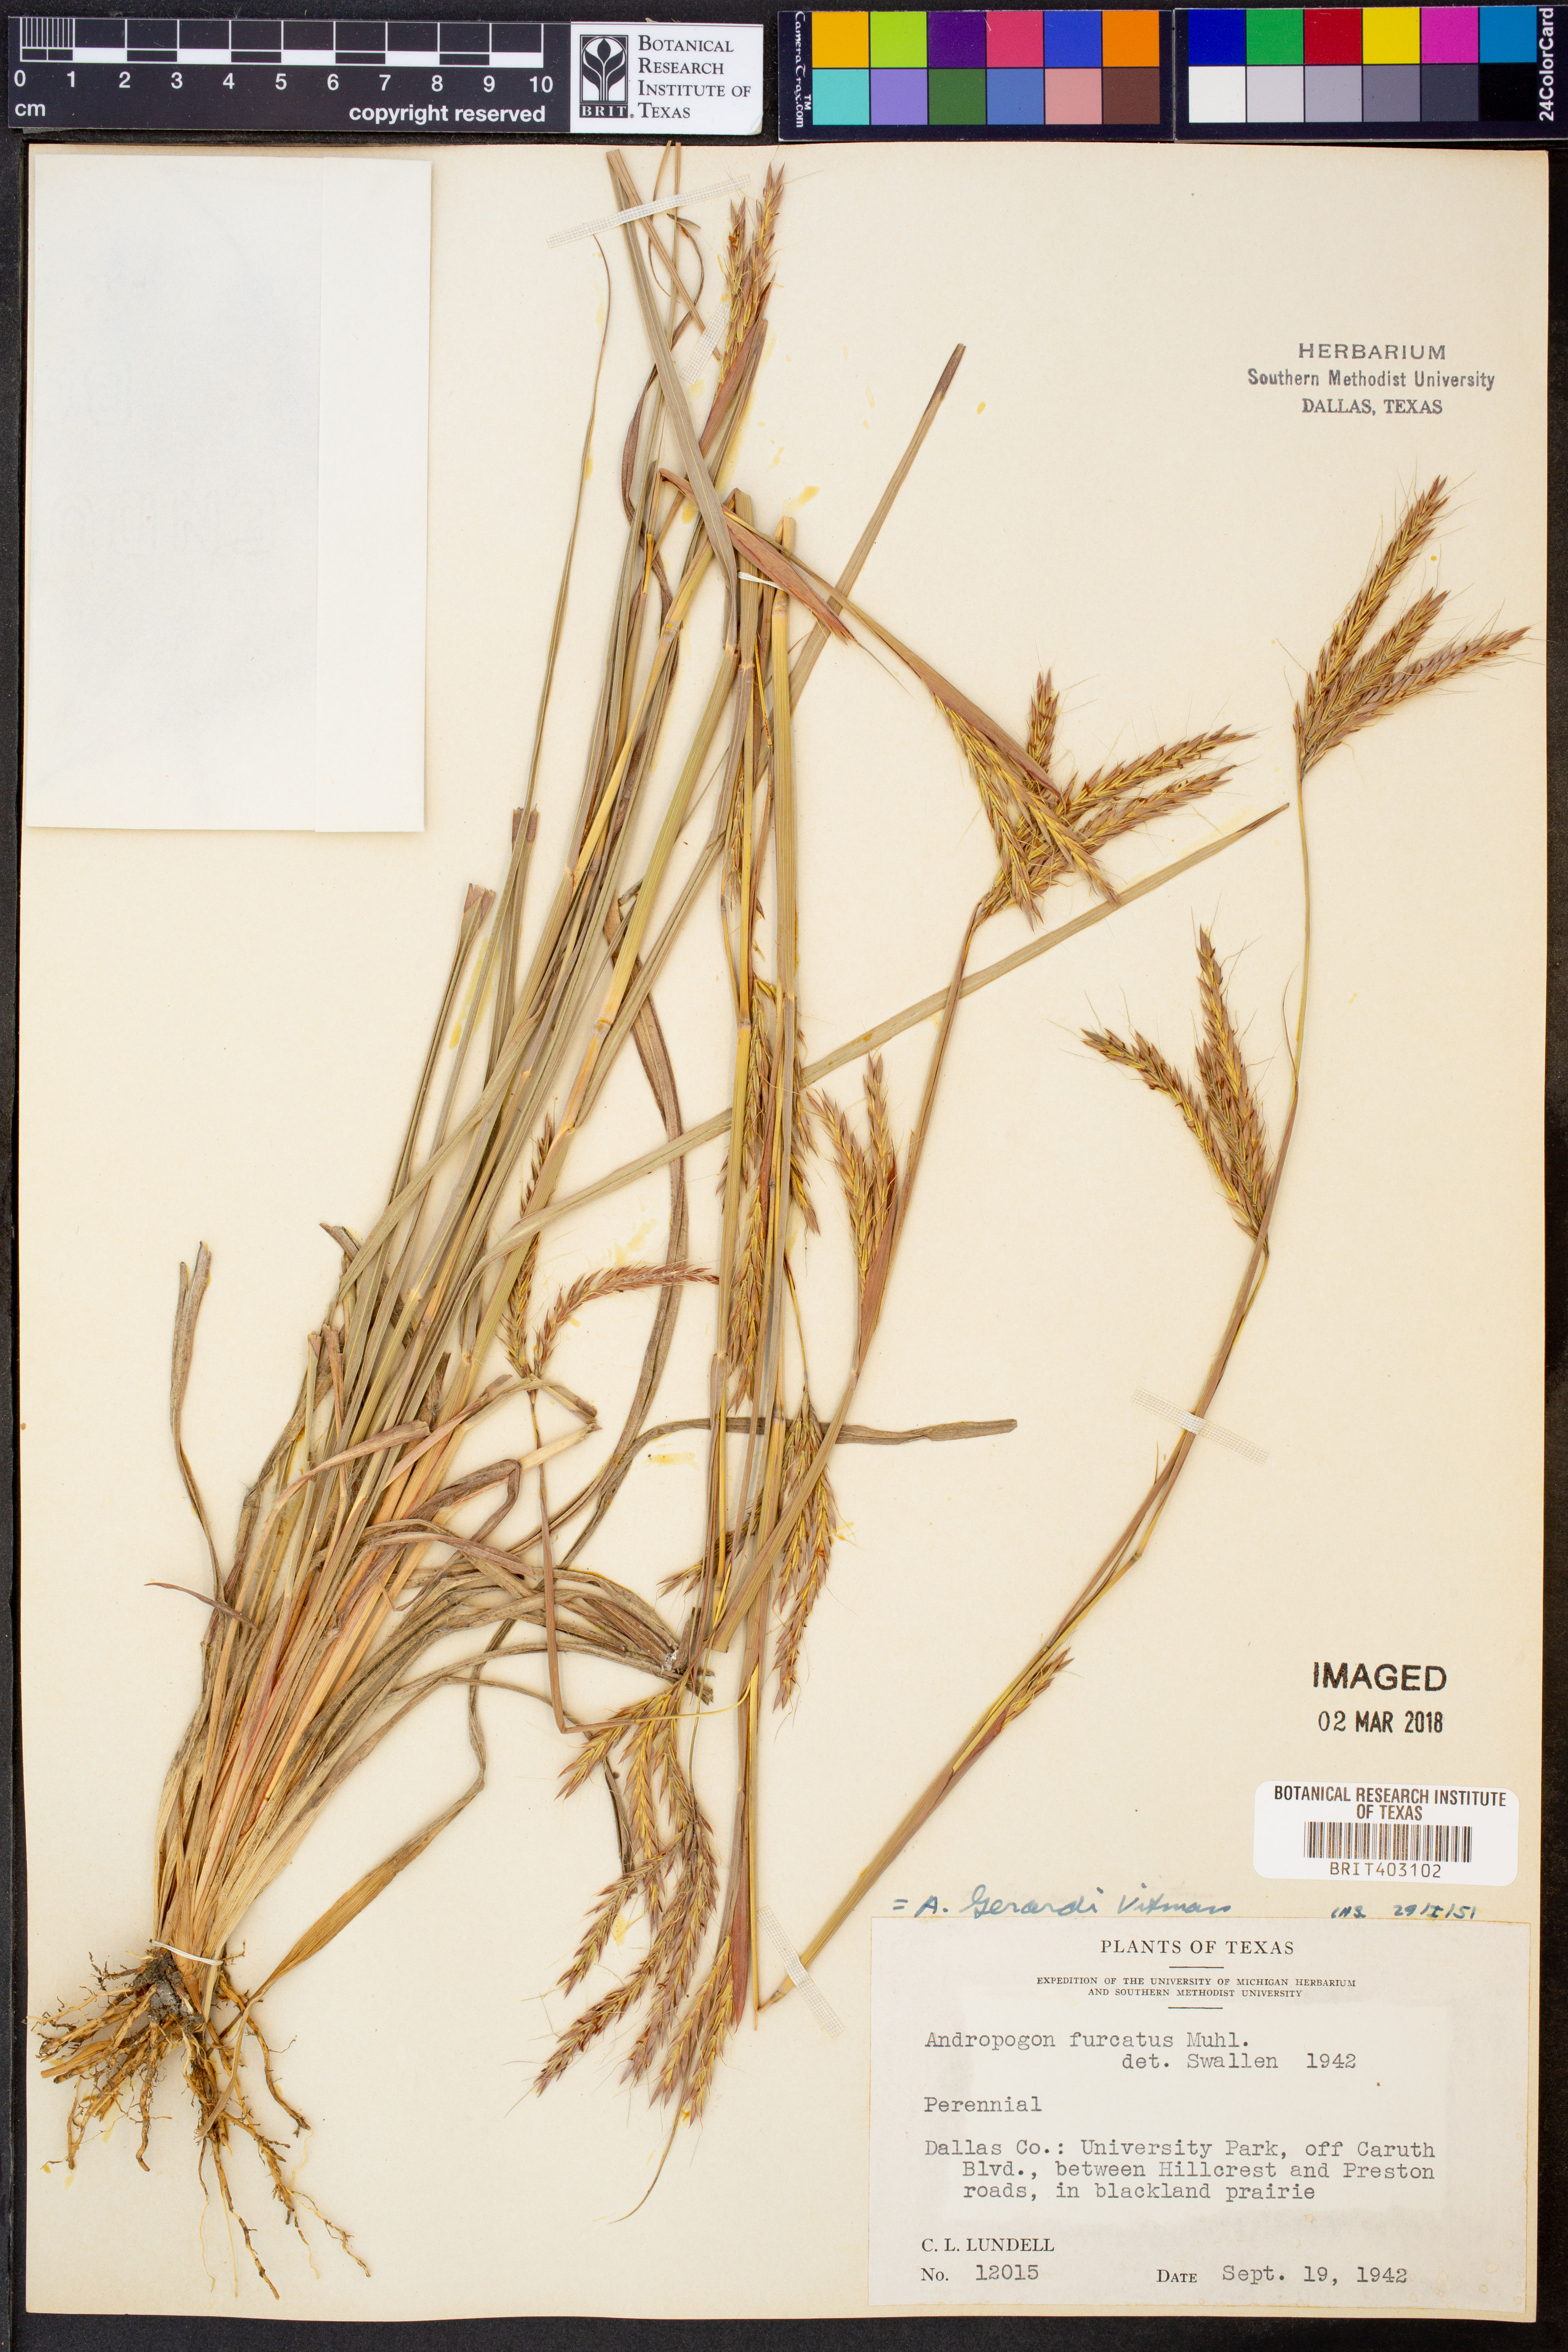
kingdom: Plantae
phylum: Tracheophyta
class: Liliopsida
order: Poales
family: Poaceae
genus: Andropogon
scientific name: Andropogon gerardi
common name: Big bluestem
